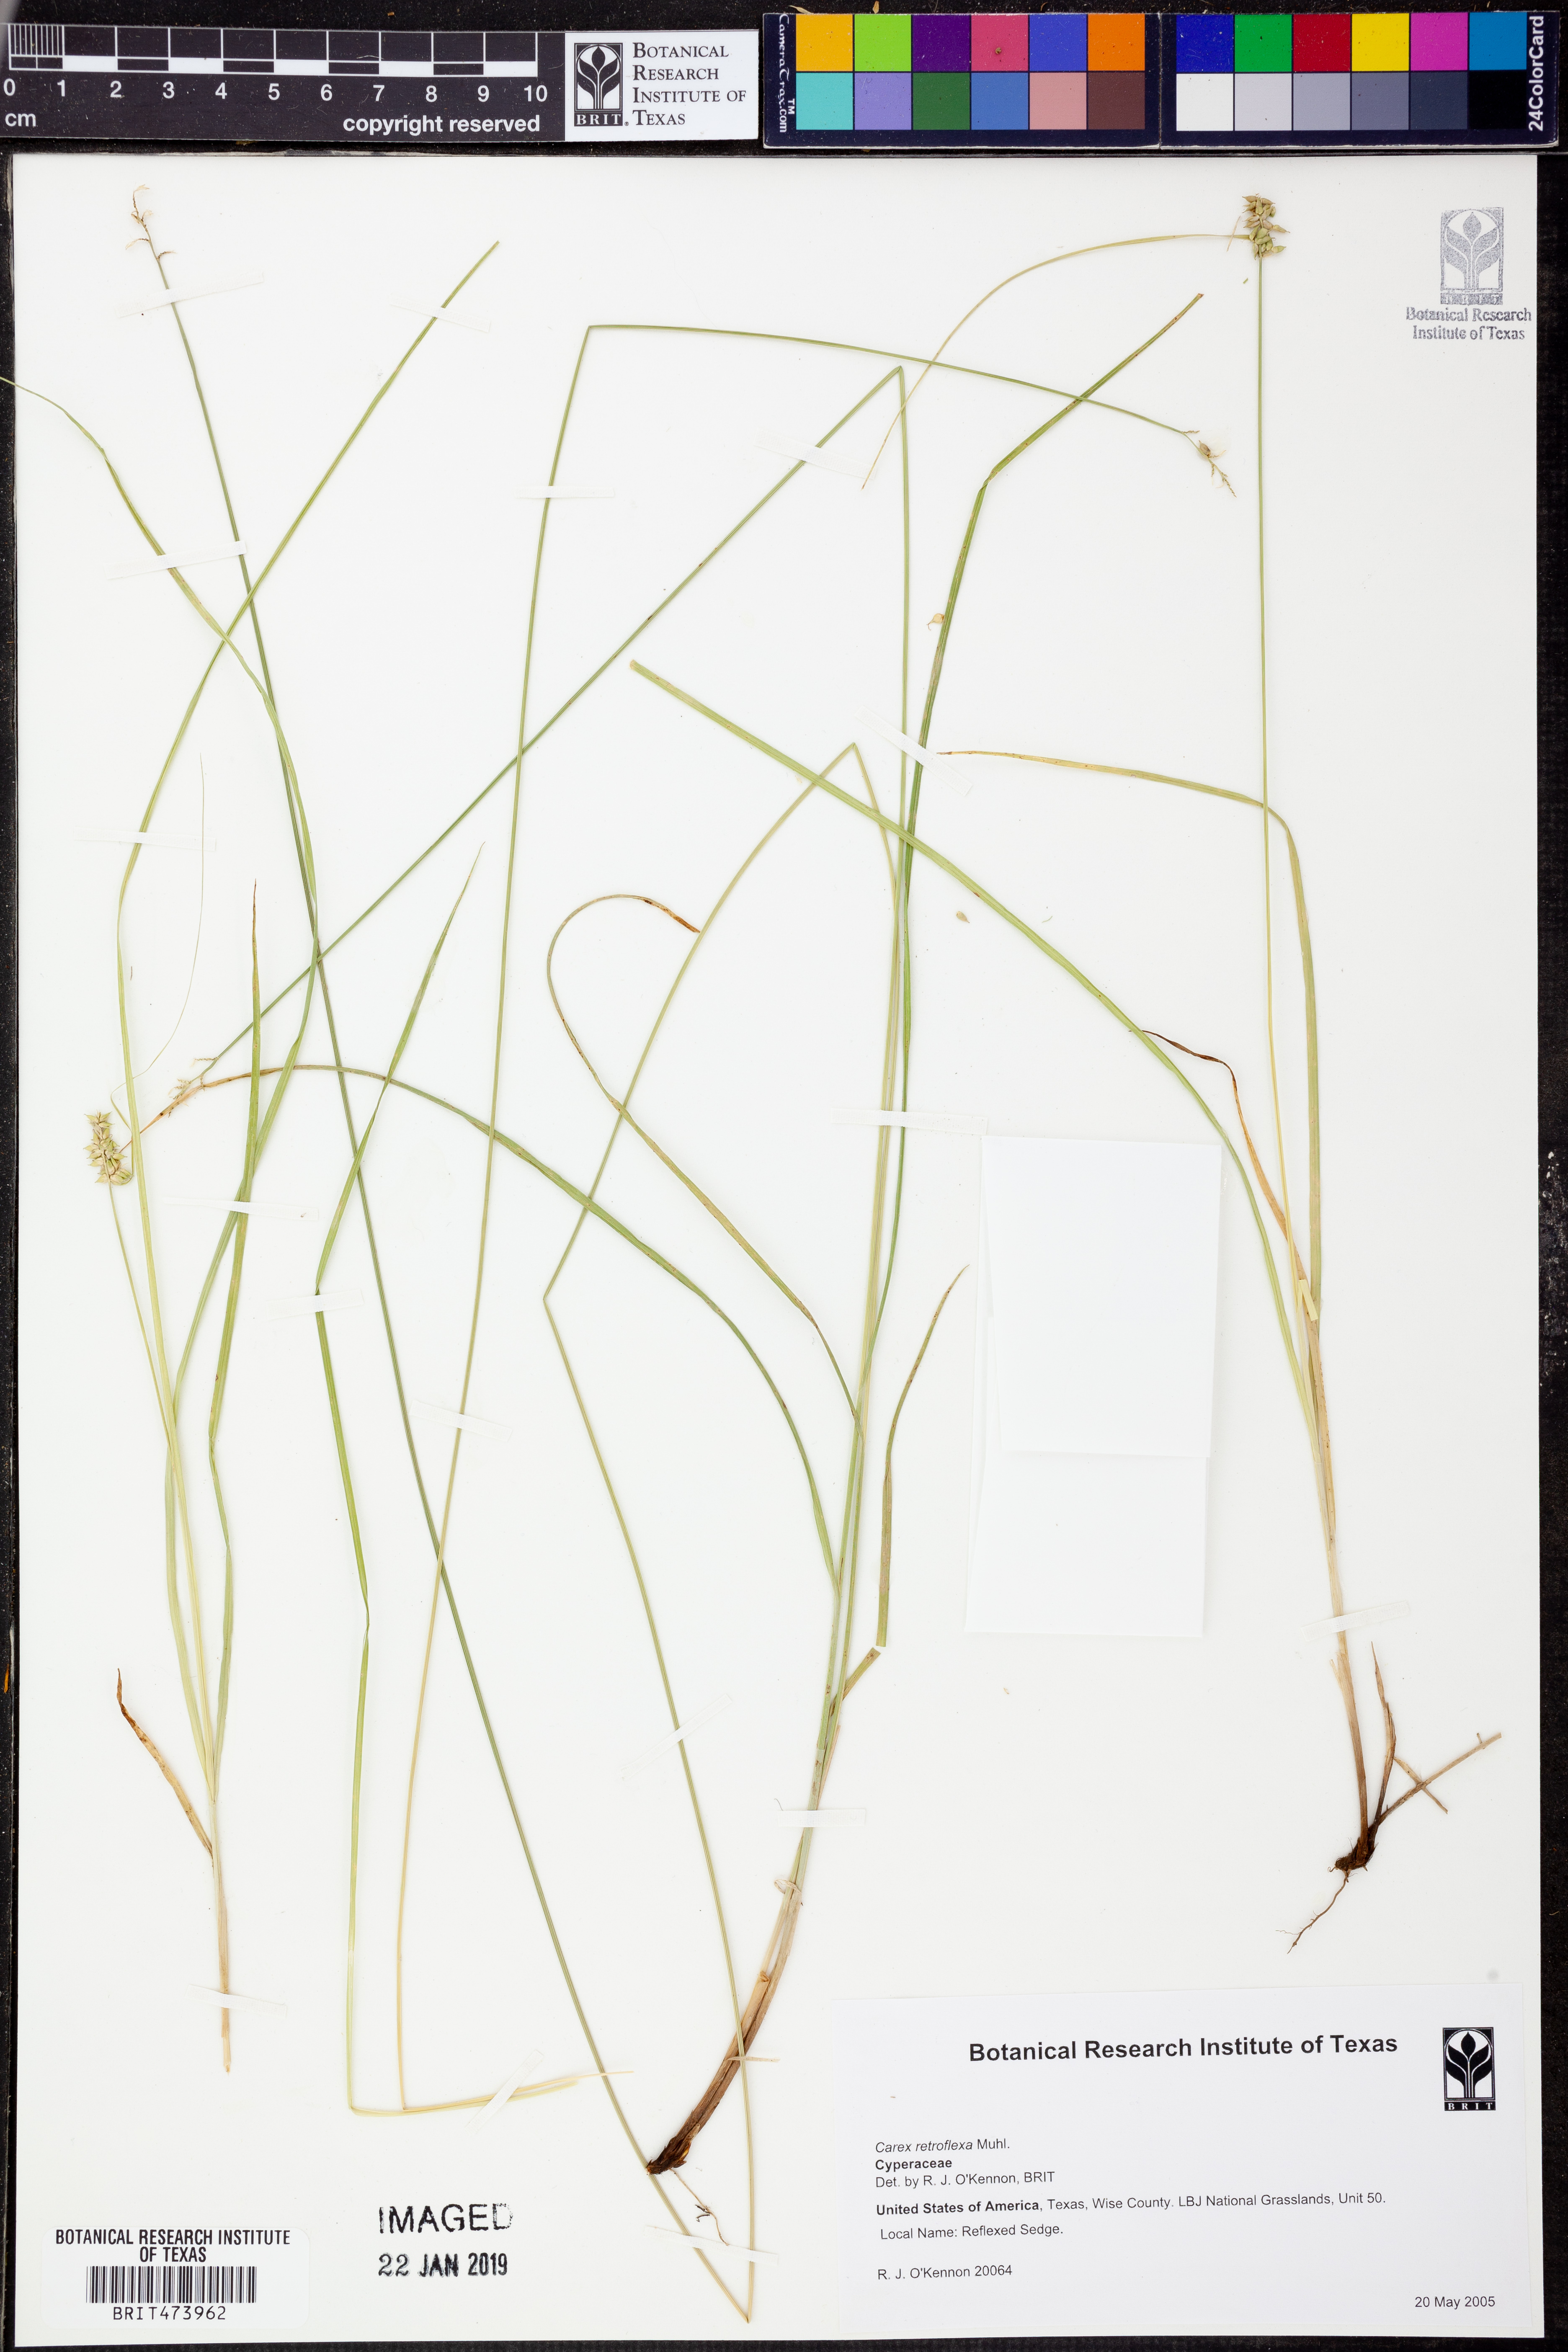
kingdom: Plantae
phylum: Tracheophyta
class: Liliopsida
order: Poales
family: Cyperaceae
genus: Carex
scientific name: Carex retroflexa
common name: Reflexed sedge
